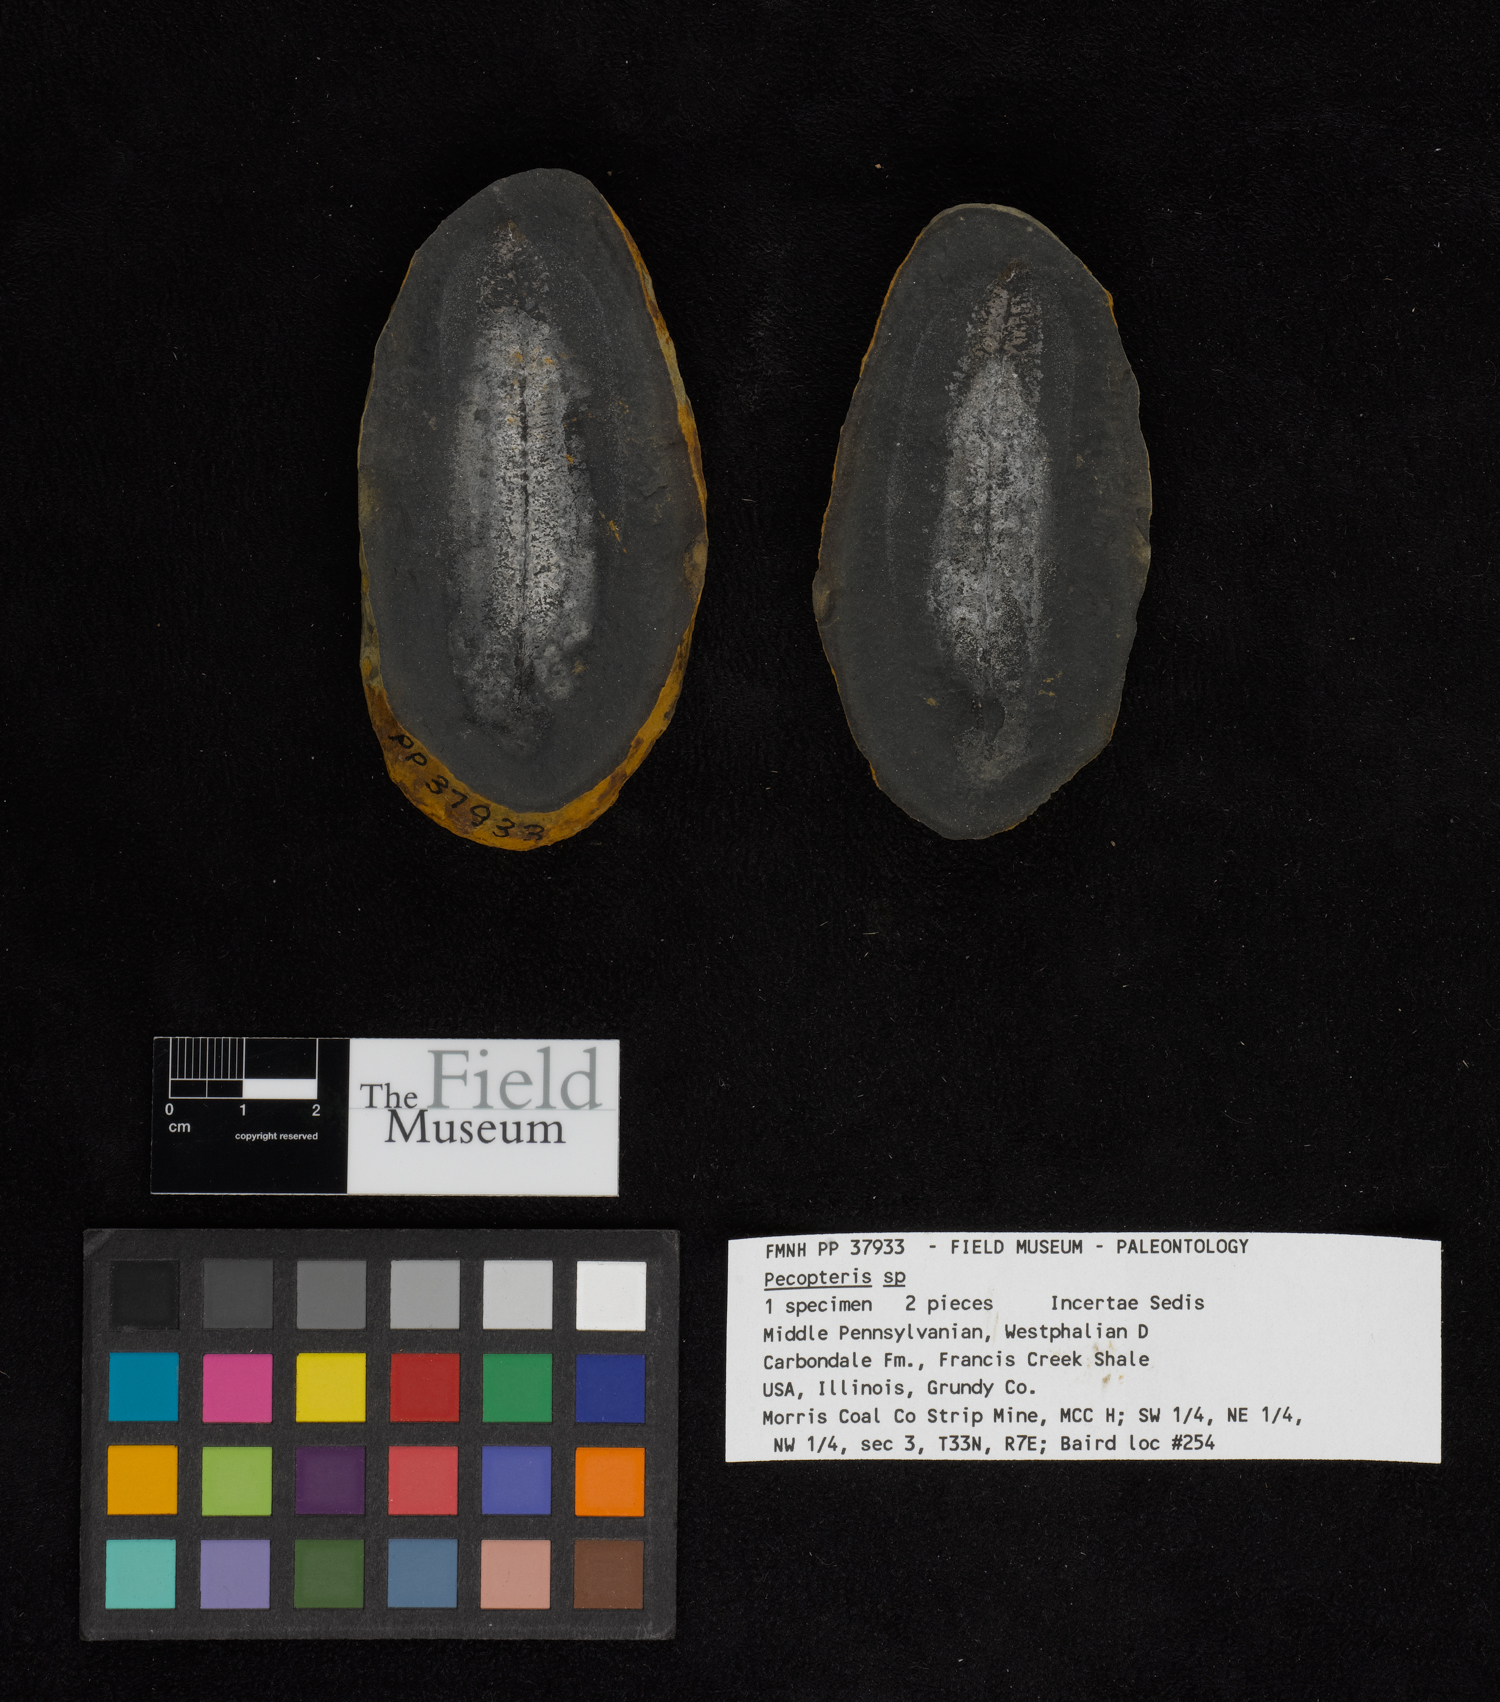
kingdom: Plantae
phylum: Tracheophyta
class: Polypodiopsida
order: Marattiales
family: Asterothecaceae
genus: Pecopteris
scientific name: Pecopteris
